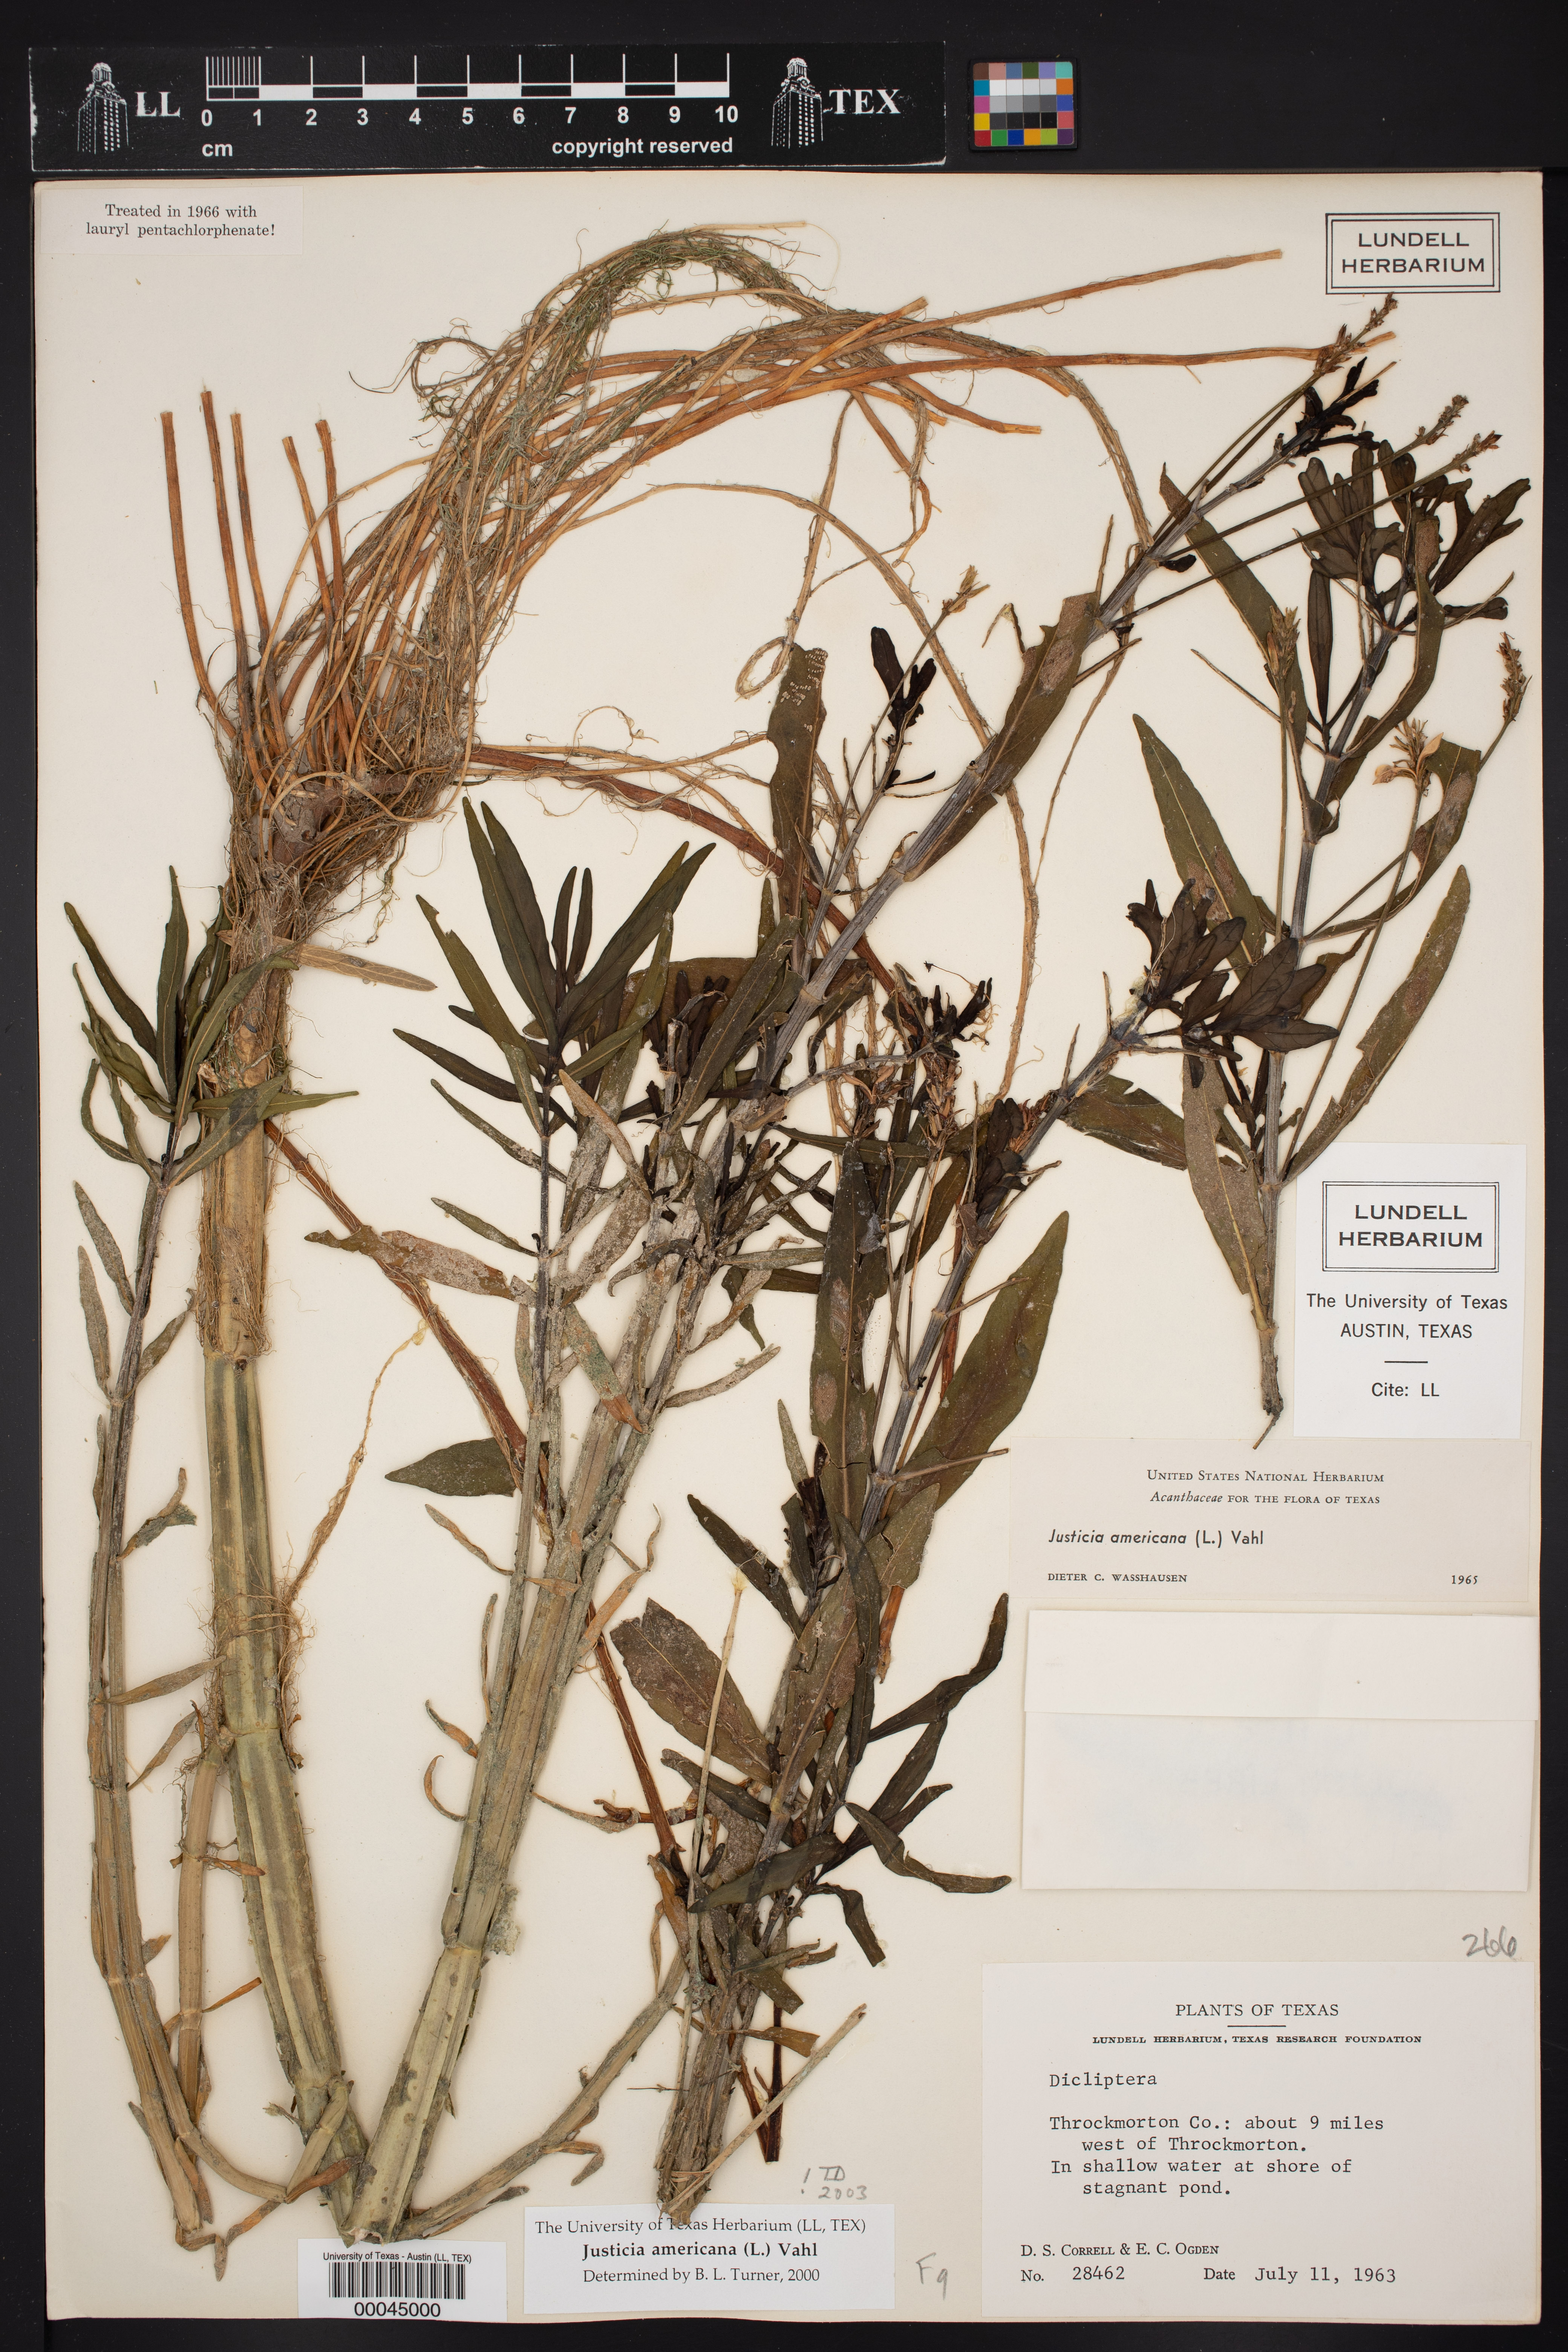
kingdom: Plantae
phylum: Tracheophyta
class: Magnoliopsida
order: Lamiales
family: Acanthaceae
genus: Dianthera
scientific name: Dianthera americana
